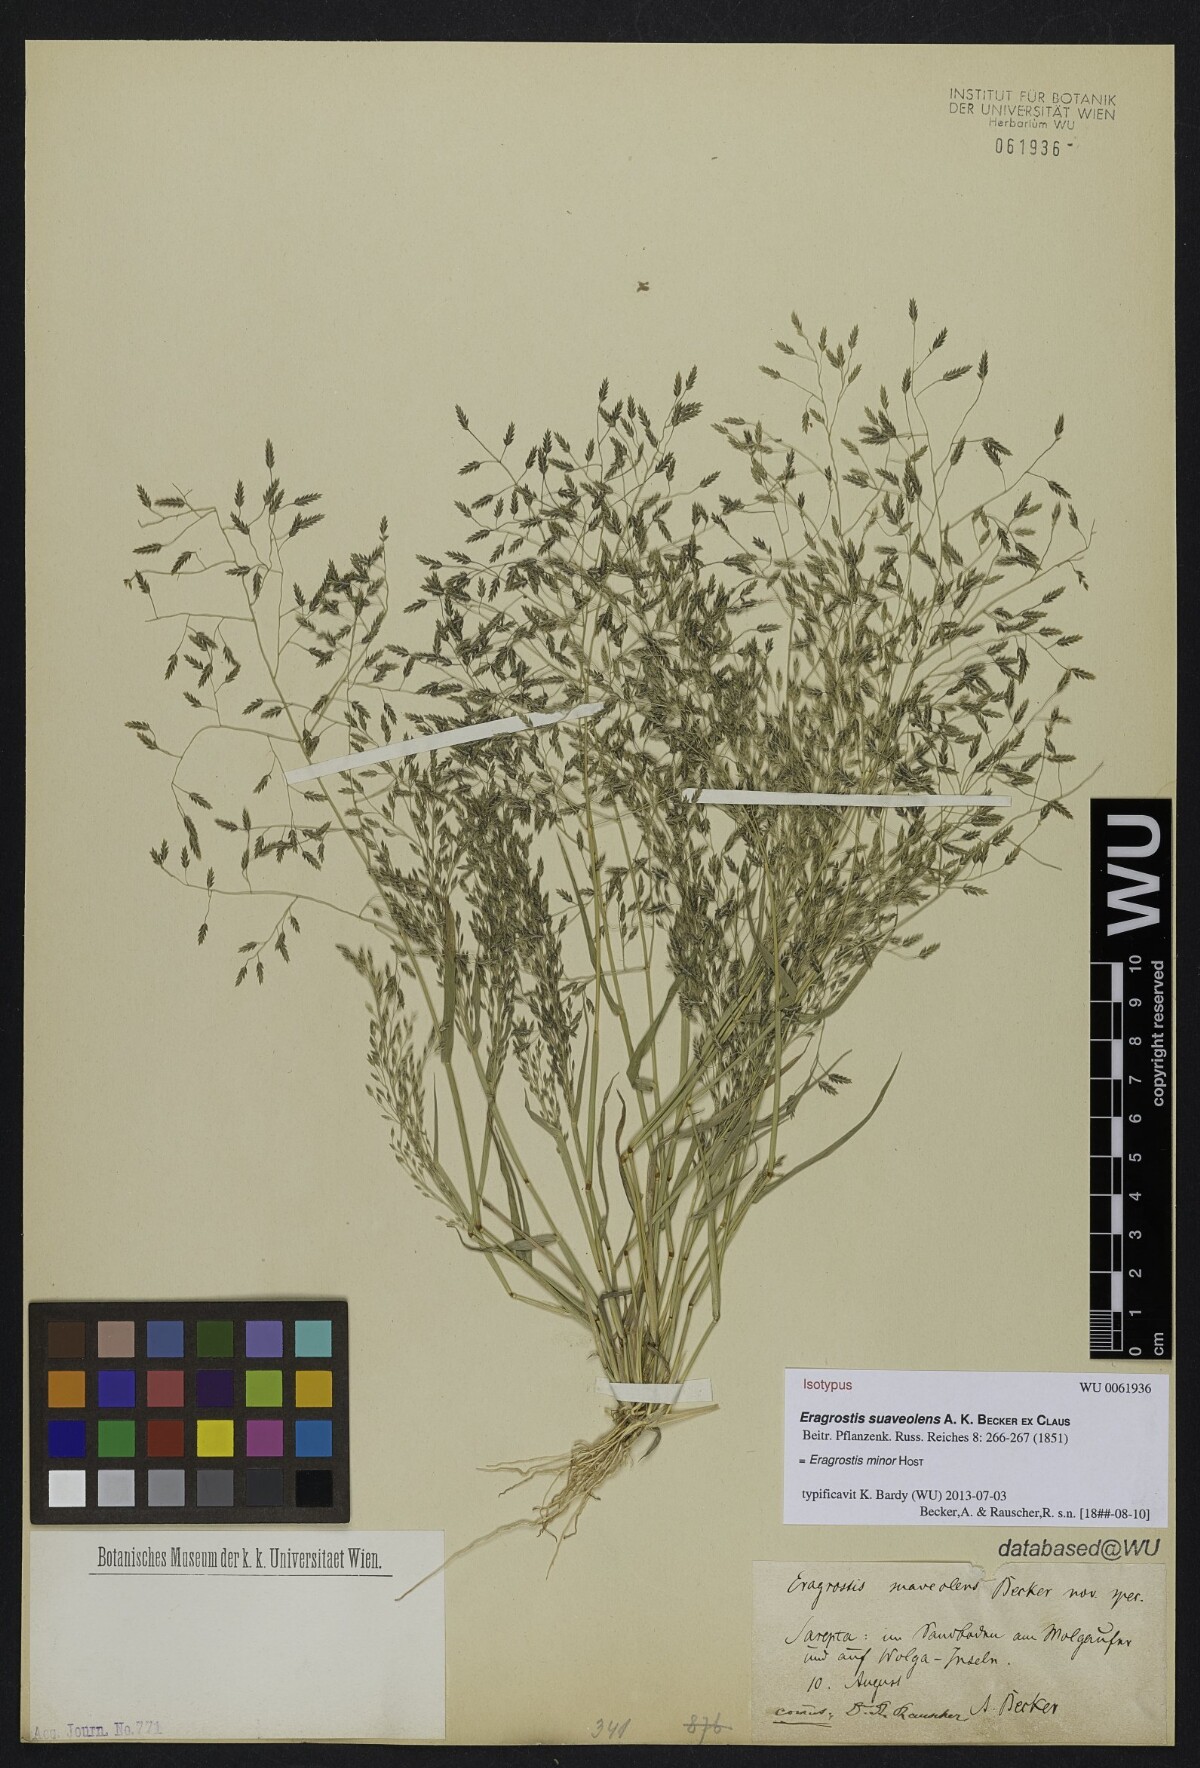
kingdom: Plantae
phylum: Tracheophyta
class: Liliopsida
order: Poales
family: Poaceae
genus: Eragrostis
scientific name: Eragrostis minor
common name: Small love-grass
